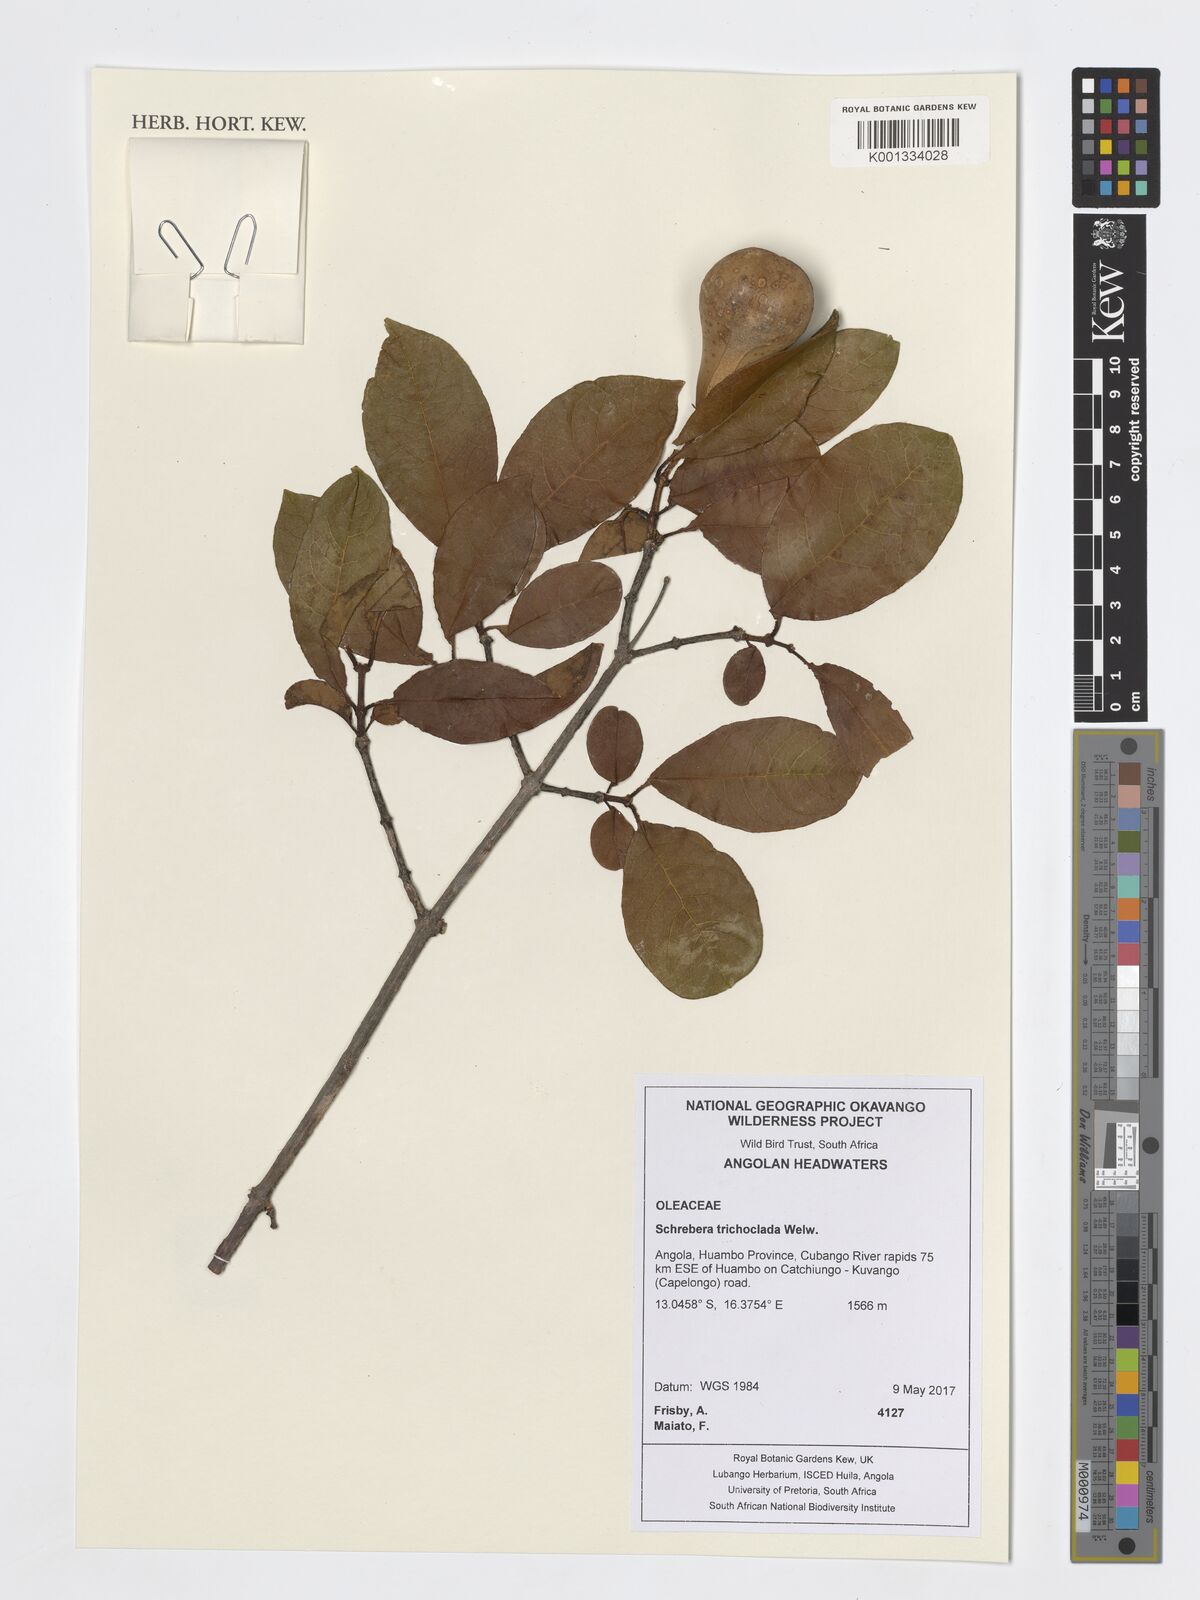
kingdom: Plantae
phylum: Tracheophyta
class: Magnoliopsida
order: Lamiales
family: Oleaceae
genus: Schrebera
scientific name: Schrebera trichoclada
